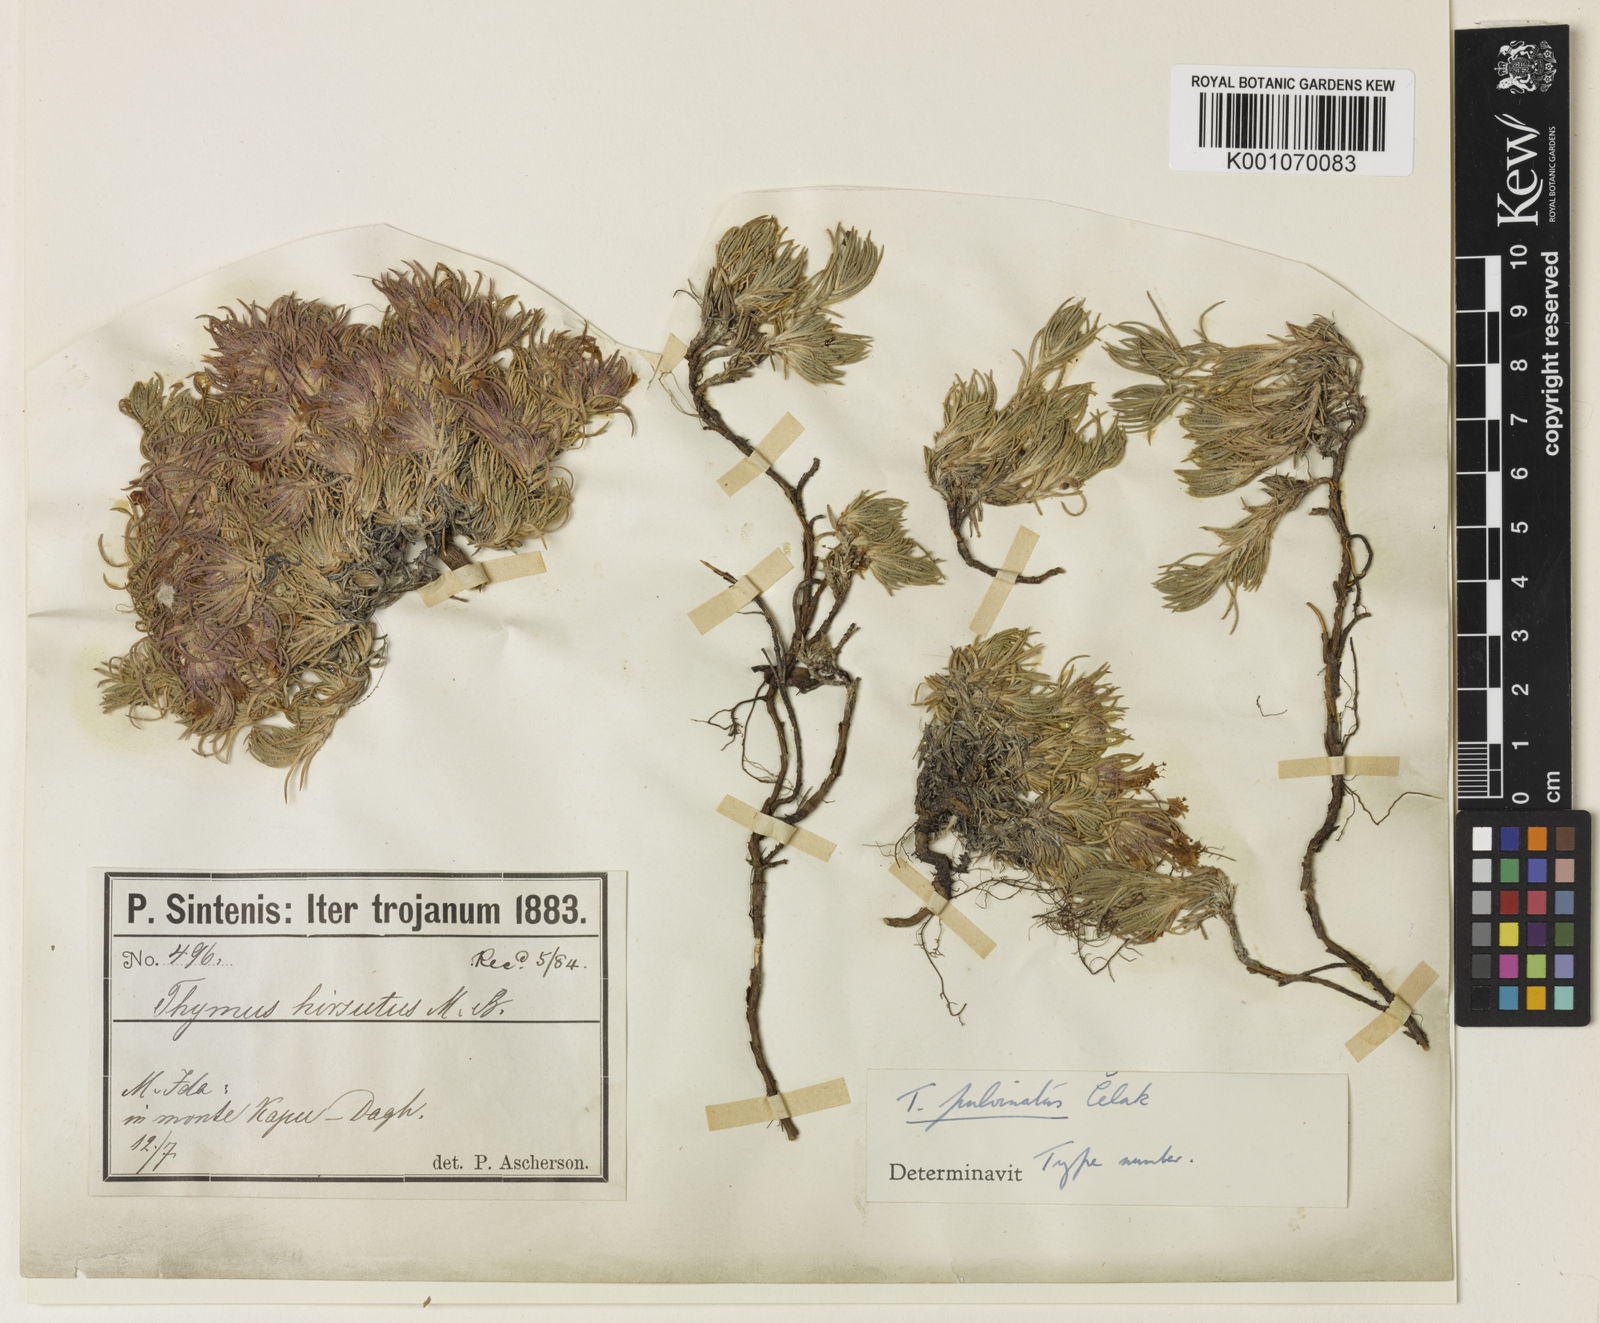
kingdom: Plantae
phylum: Tracheophyta
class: Magnoliopsida
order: Lamiales
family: Lamiaceae
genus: Thymus
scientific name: Thymus pulvinatus
